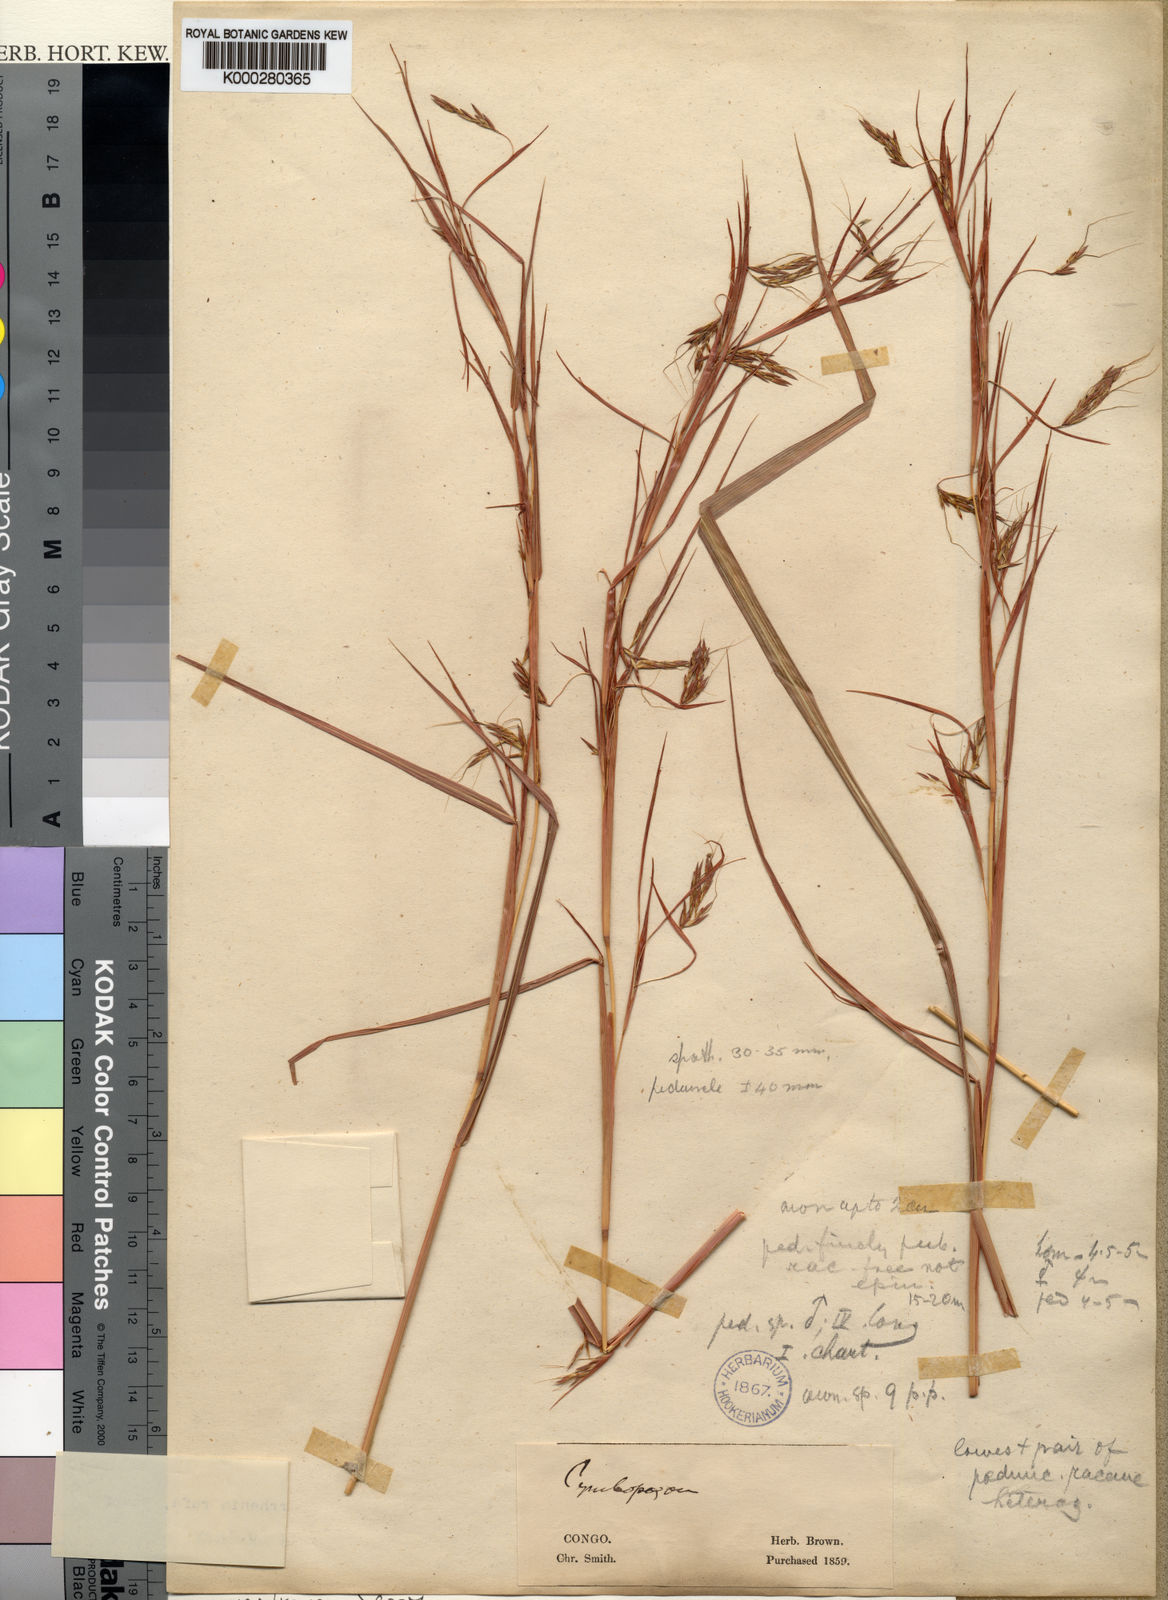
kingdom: Plantae
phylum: Tracheophyta
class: Liliopsida
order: Poales
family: Poaceae
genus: Hyparrhenia
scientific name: Hyparrhenia rufa
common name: Jaraguagrass
